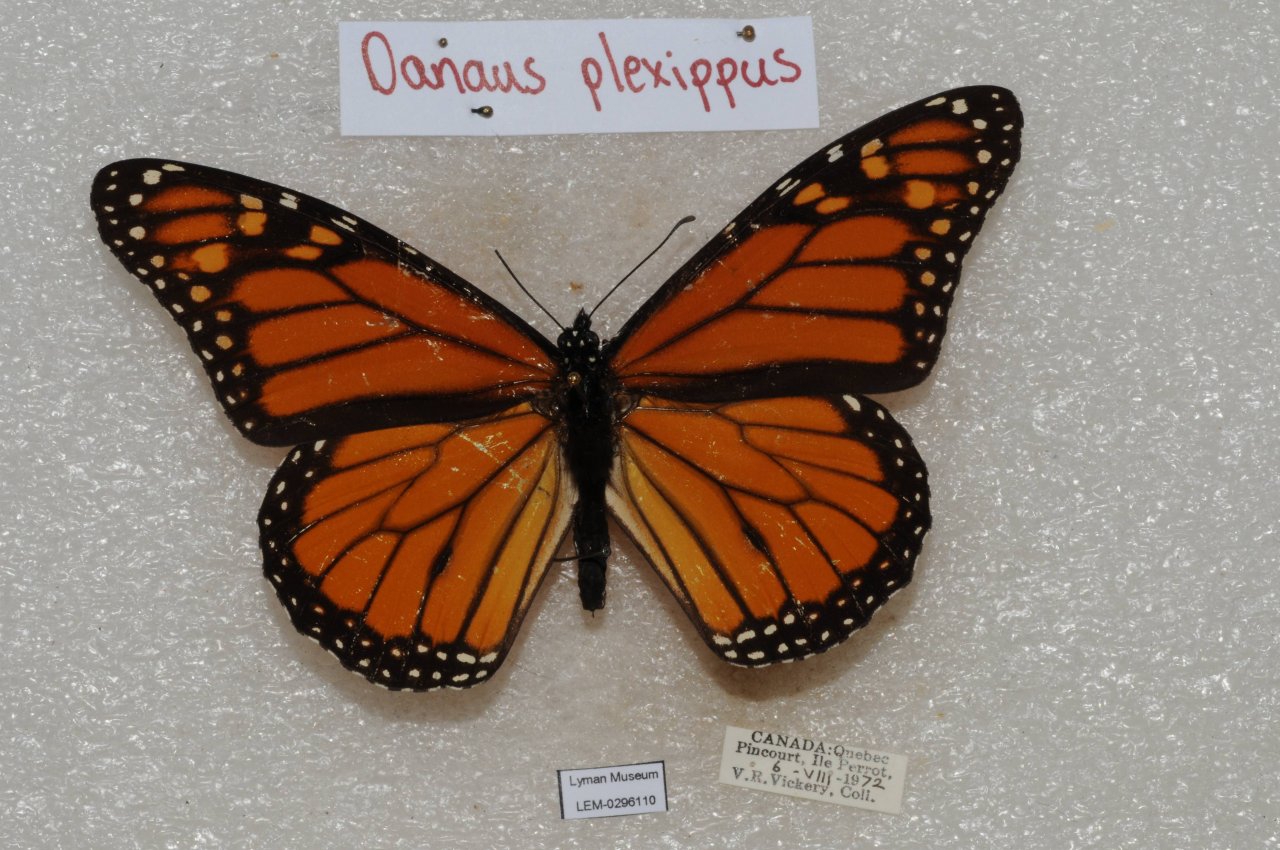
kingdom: Animalia
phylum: Arthropoda
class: Insecta
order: Lepidoptera
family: Nymphalidae
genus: Danaus
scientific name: Danaus plexippus
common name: Monarch
